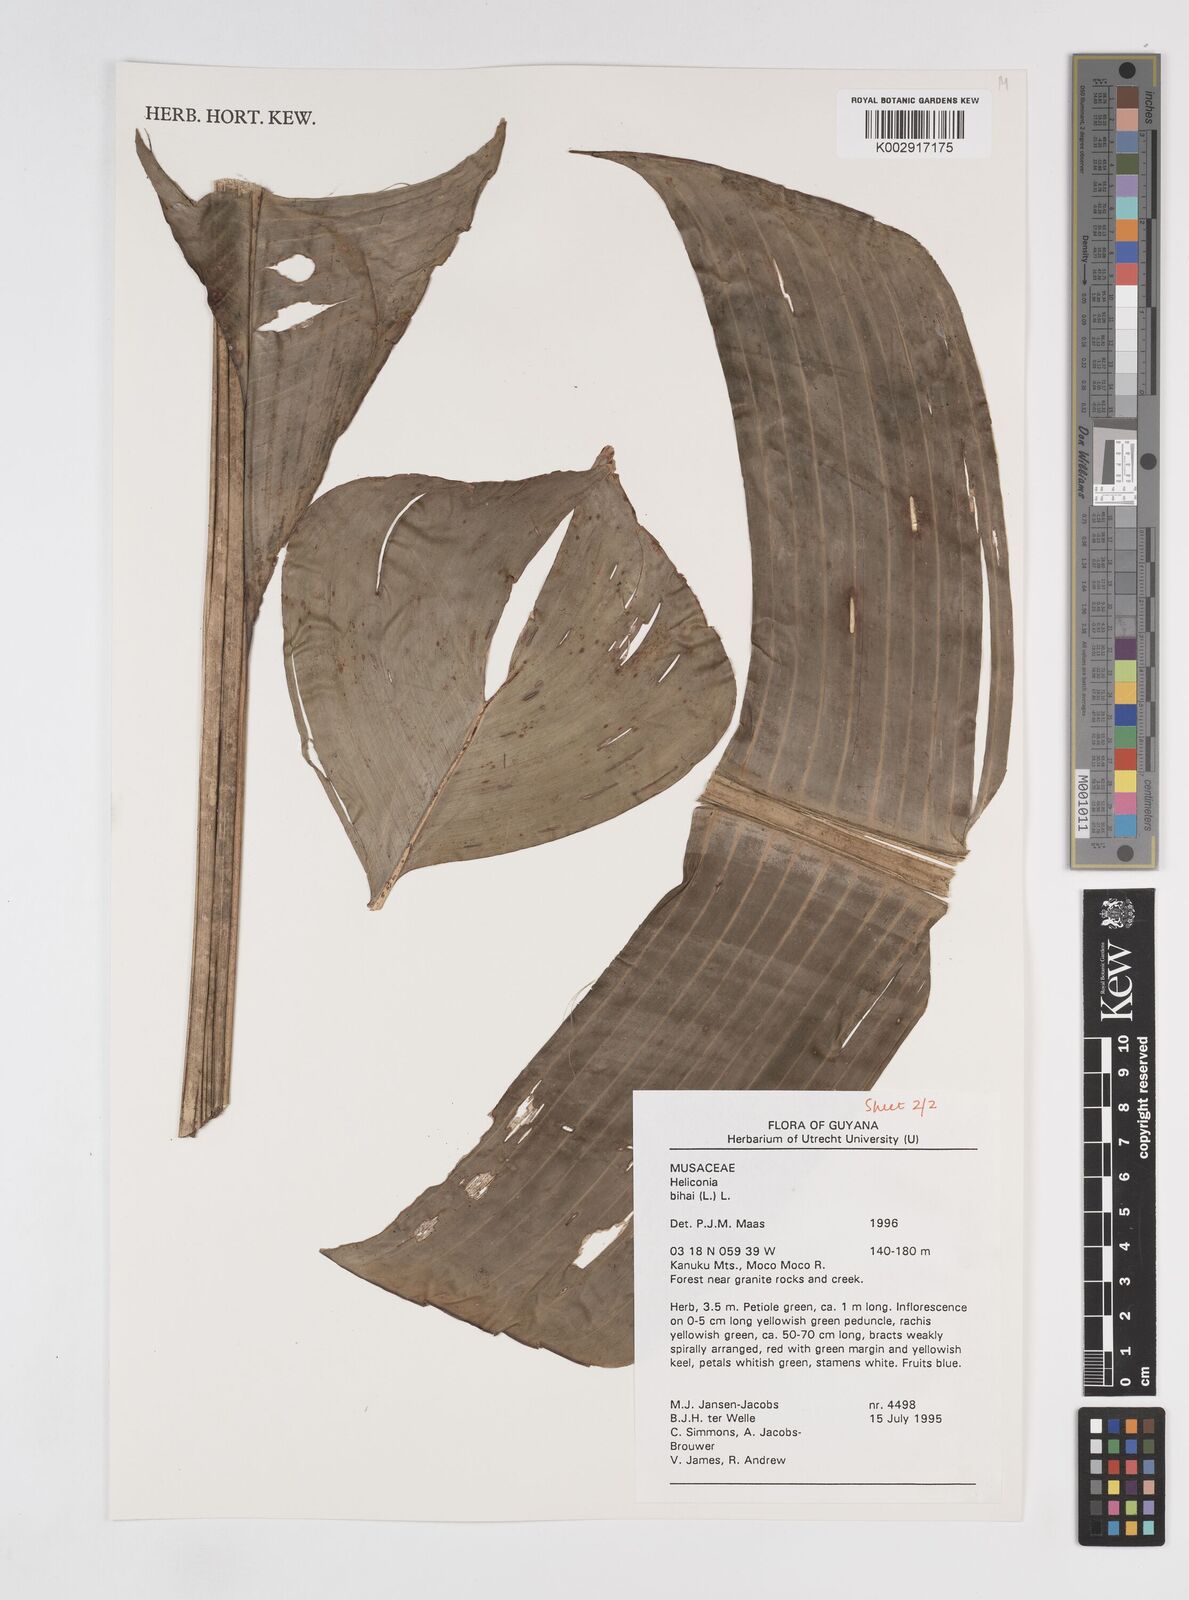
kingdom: Plantae
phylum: Tracheophyta
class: Liliopsida
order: Zingiberales
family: Heliconiaceae
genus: Heliconia
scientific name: Heliconia bihai
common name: Macaw flower
